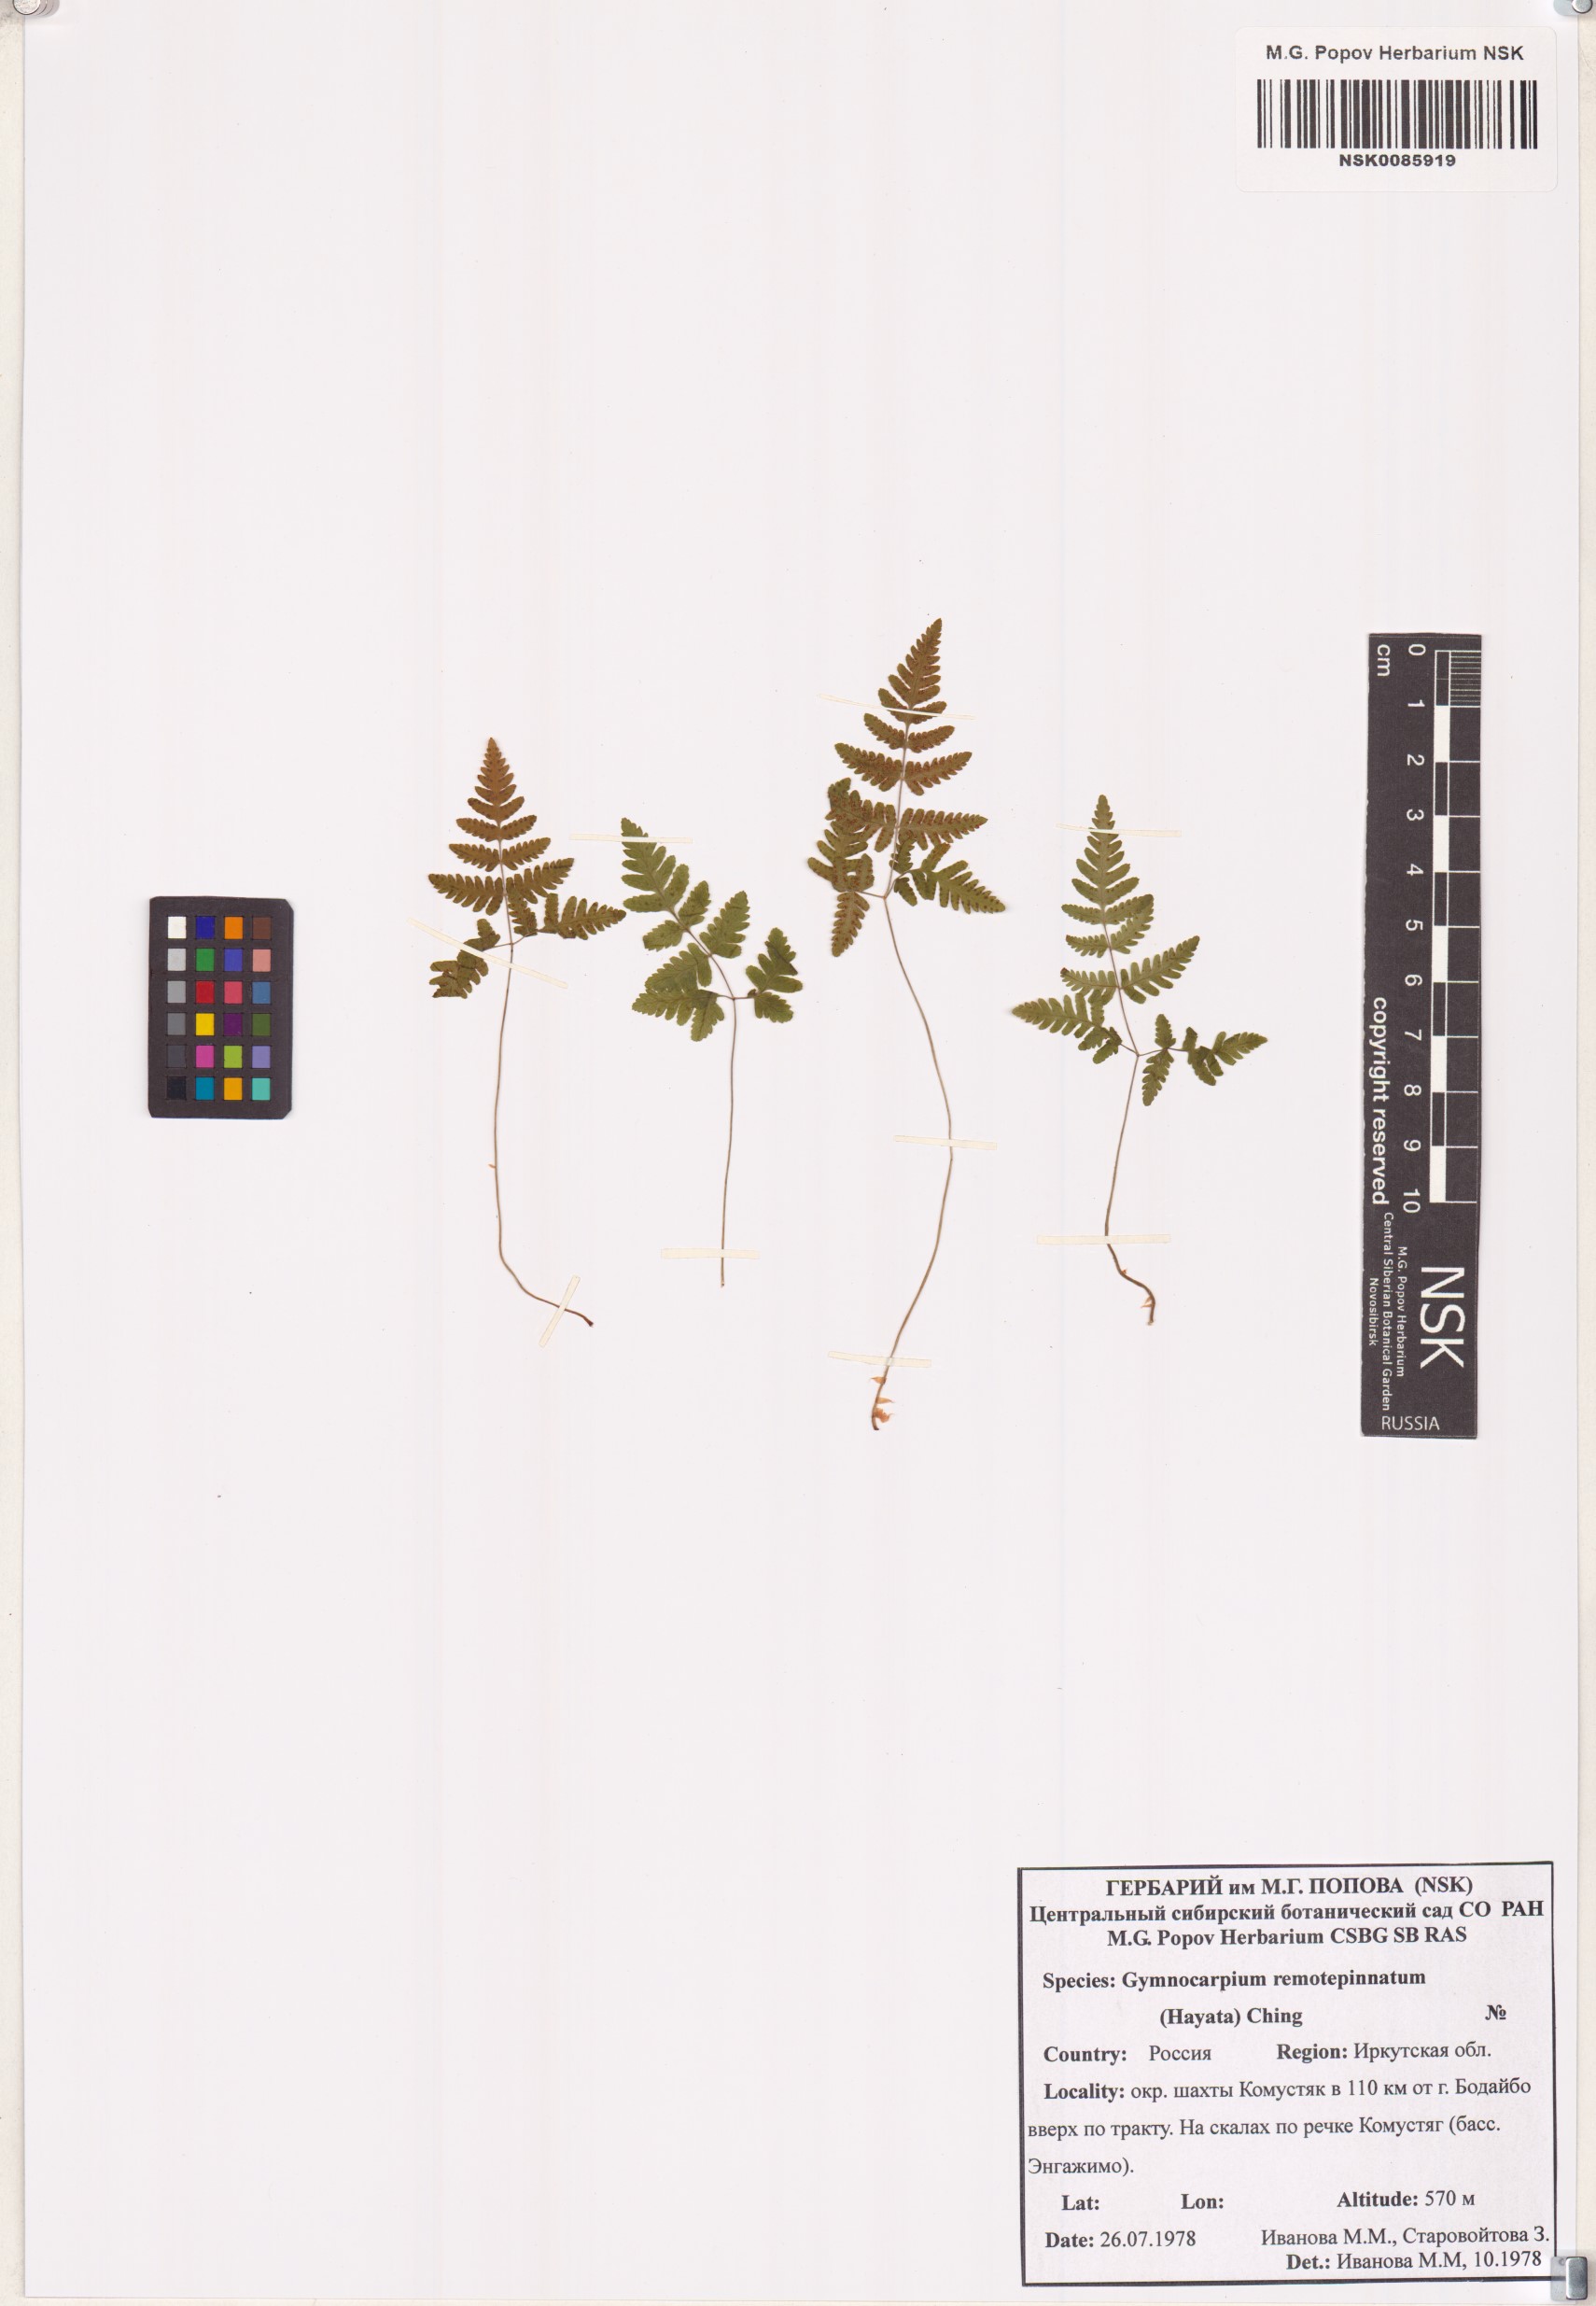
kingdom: Plantae
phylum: Tracheophyta
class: Polypodiopsida
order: Polypodiales
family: Cystopteridaceae
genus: Gymnocarpium
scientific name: Gymnocarpium remotepinnatum
